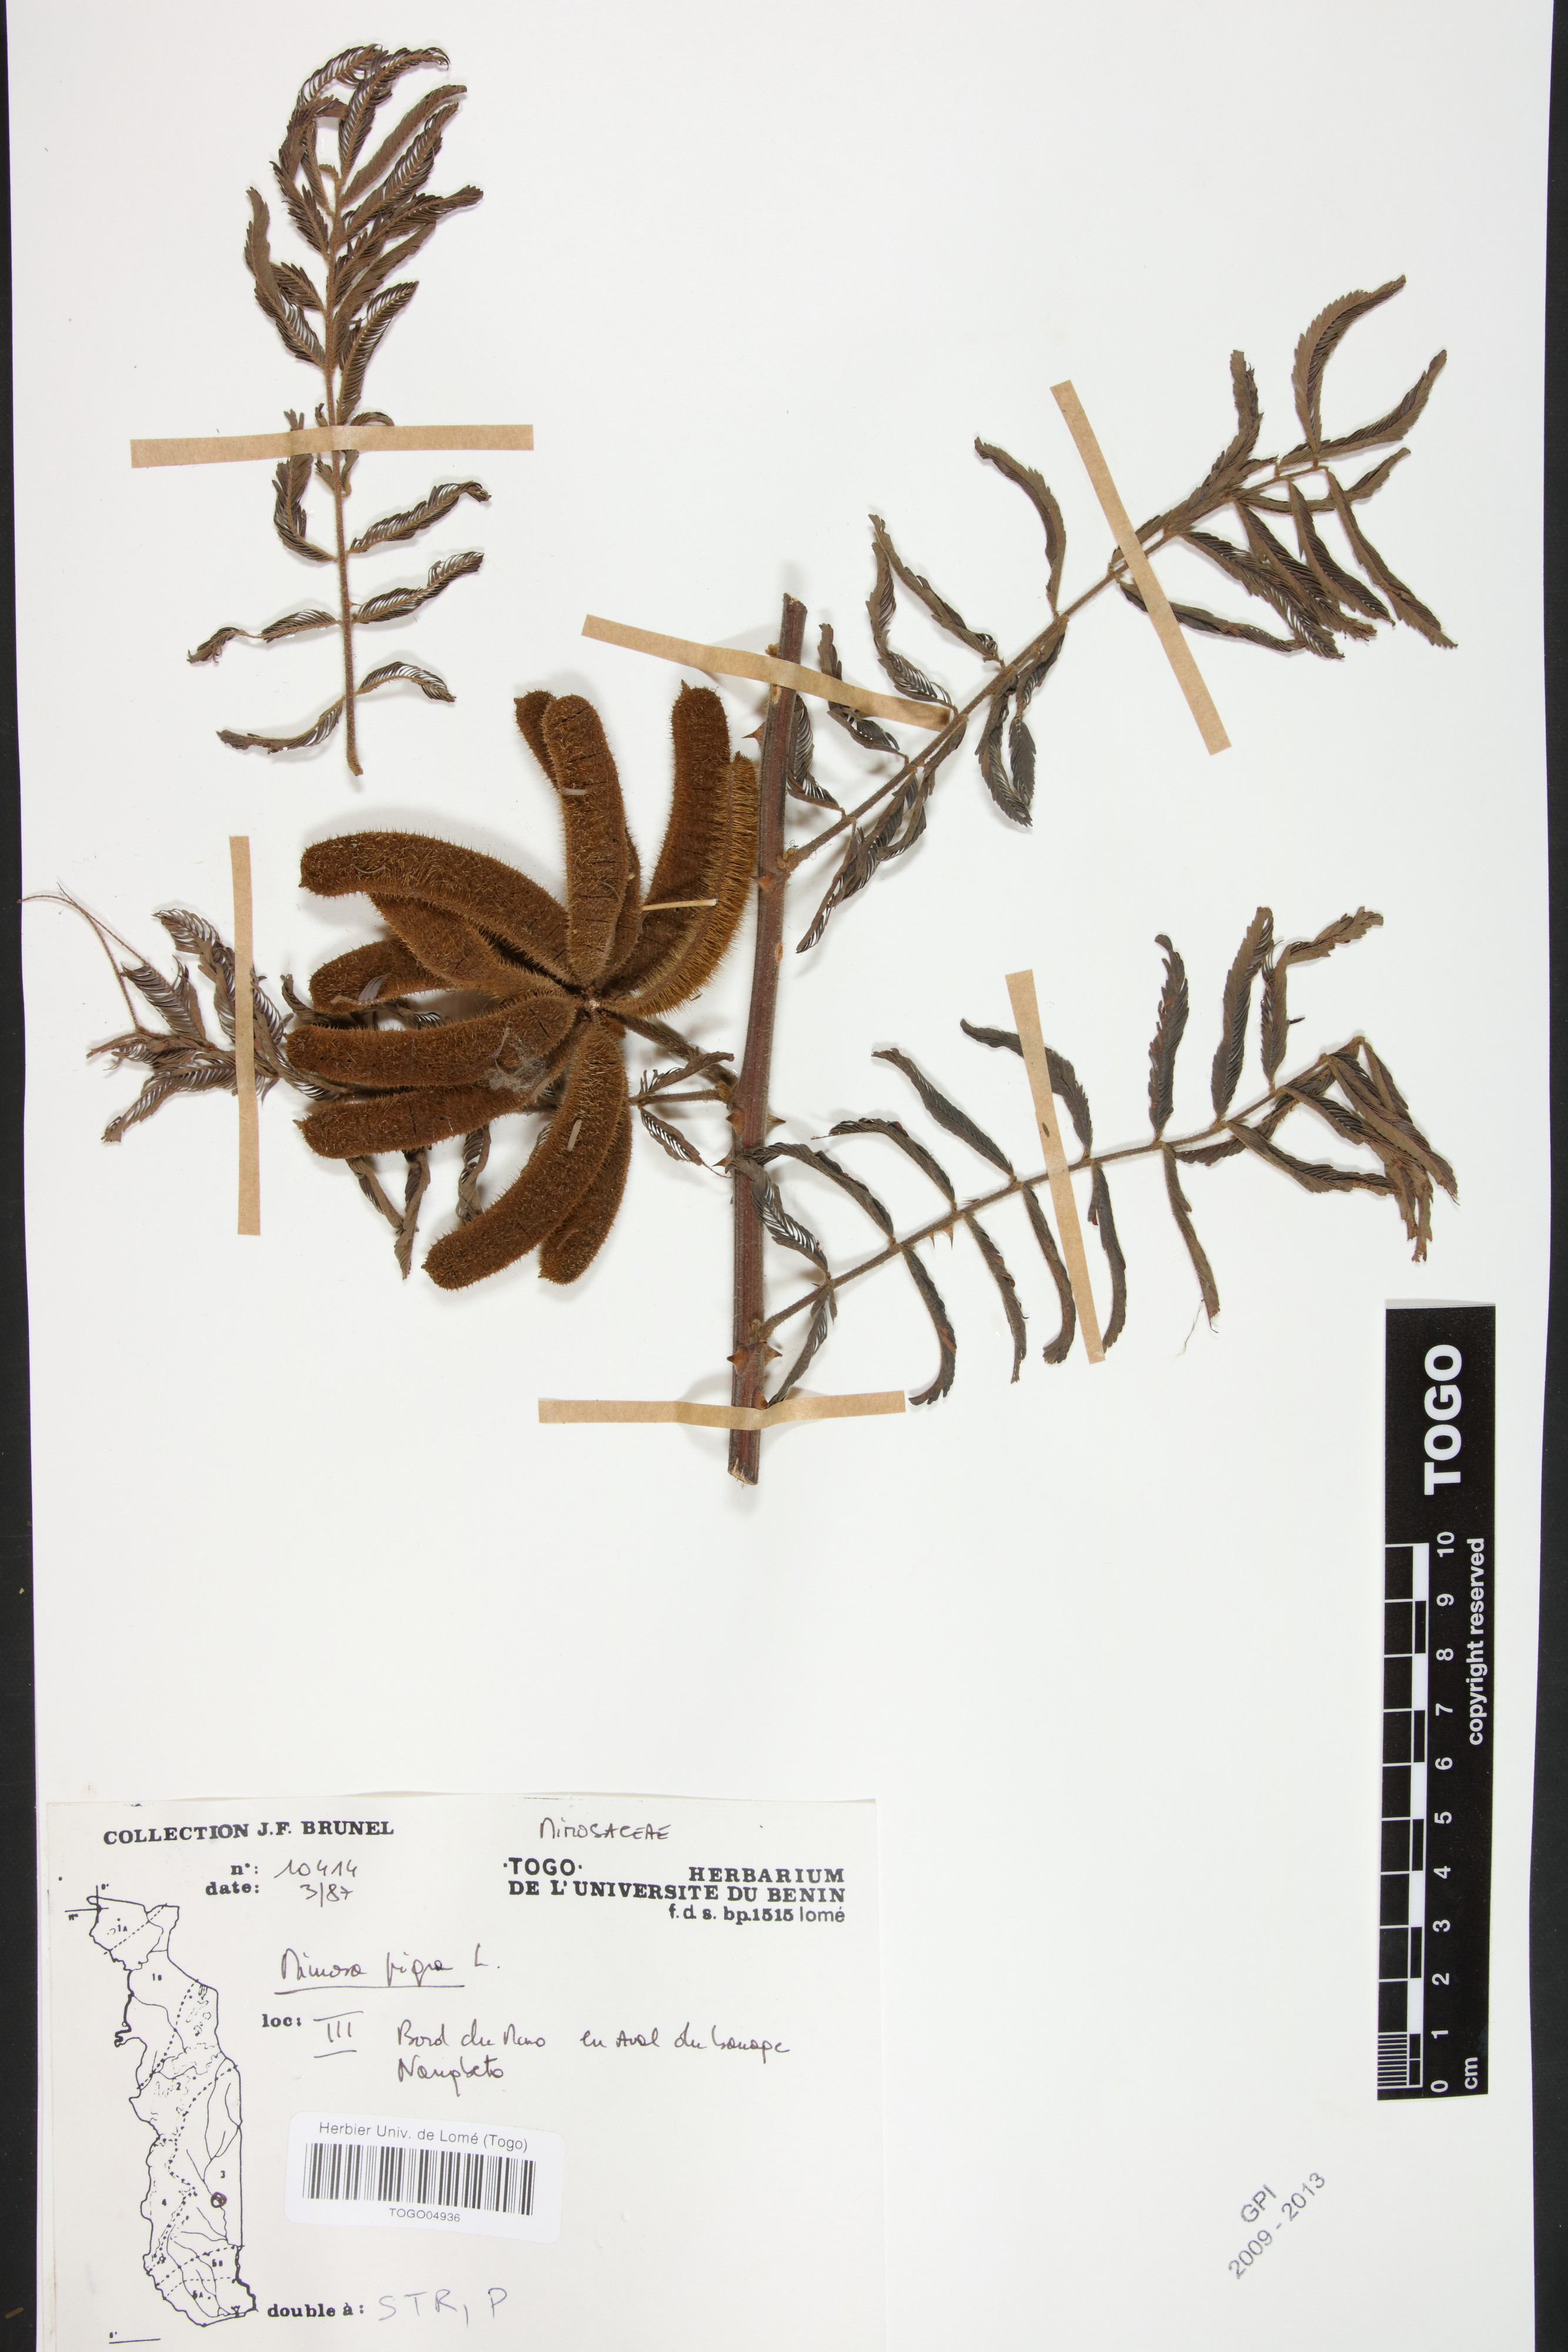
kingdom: Plantae
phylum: Tracheophyta
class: Magnoliopsida
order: Fabales
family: Fabaceae
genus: Mimosa
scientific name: Mimosa pigra
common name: Black mimosa
